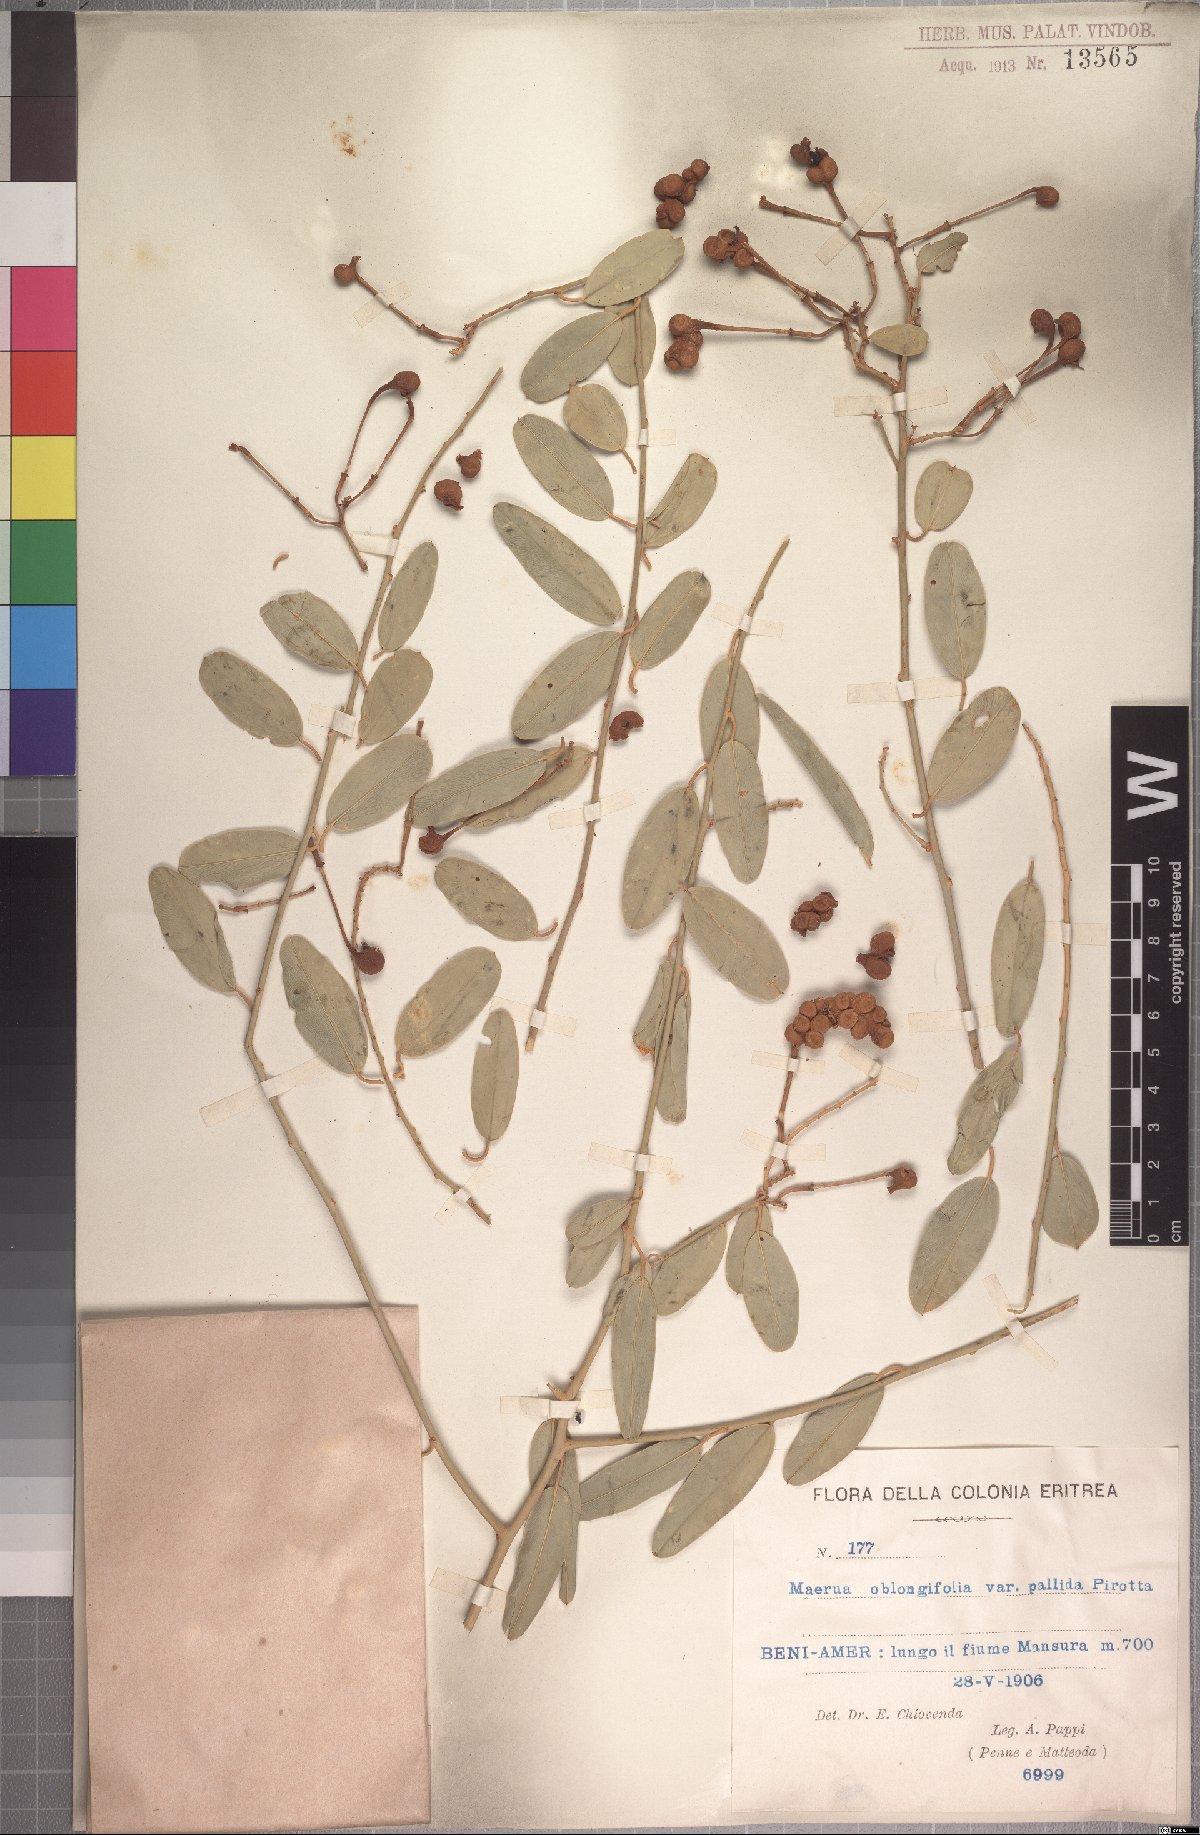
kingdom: Plantae
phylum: Tracheophyta
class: Magnoliopsida
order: Brassicales
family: Capparaceae
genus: Maerua
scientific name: Maerua oblongifolia
